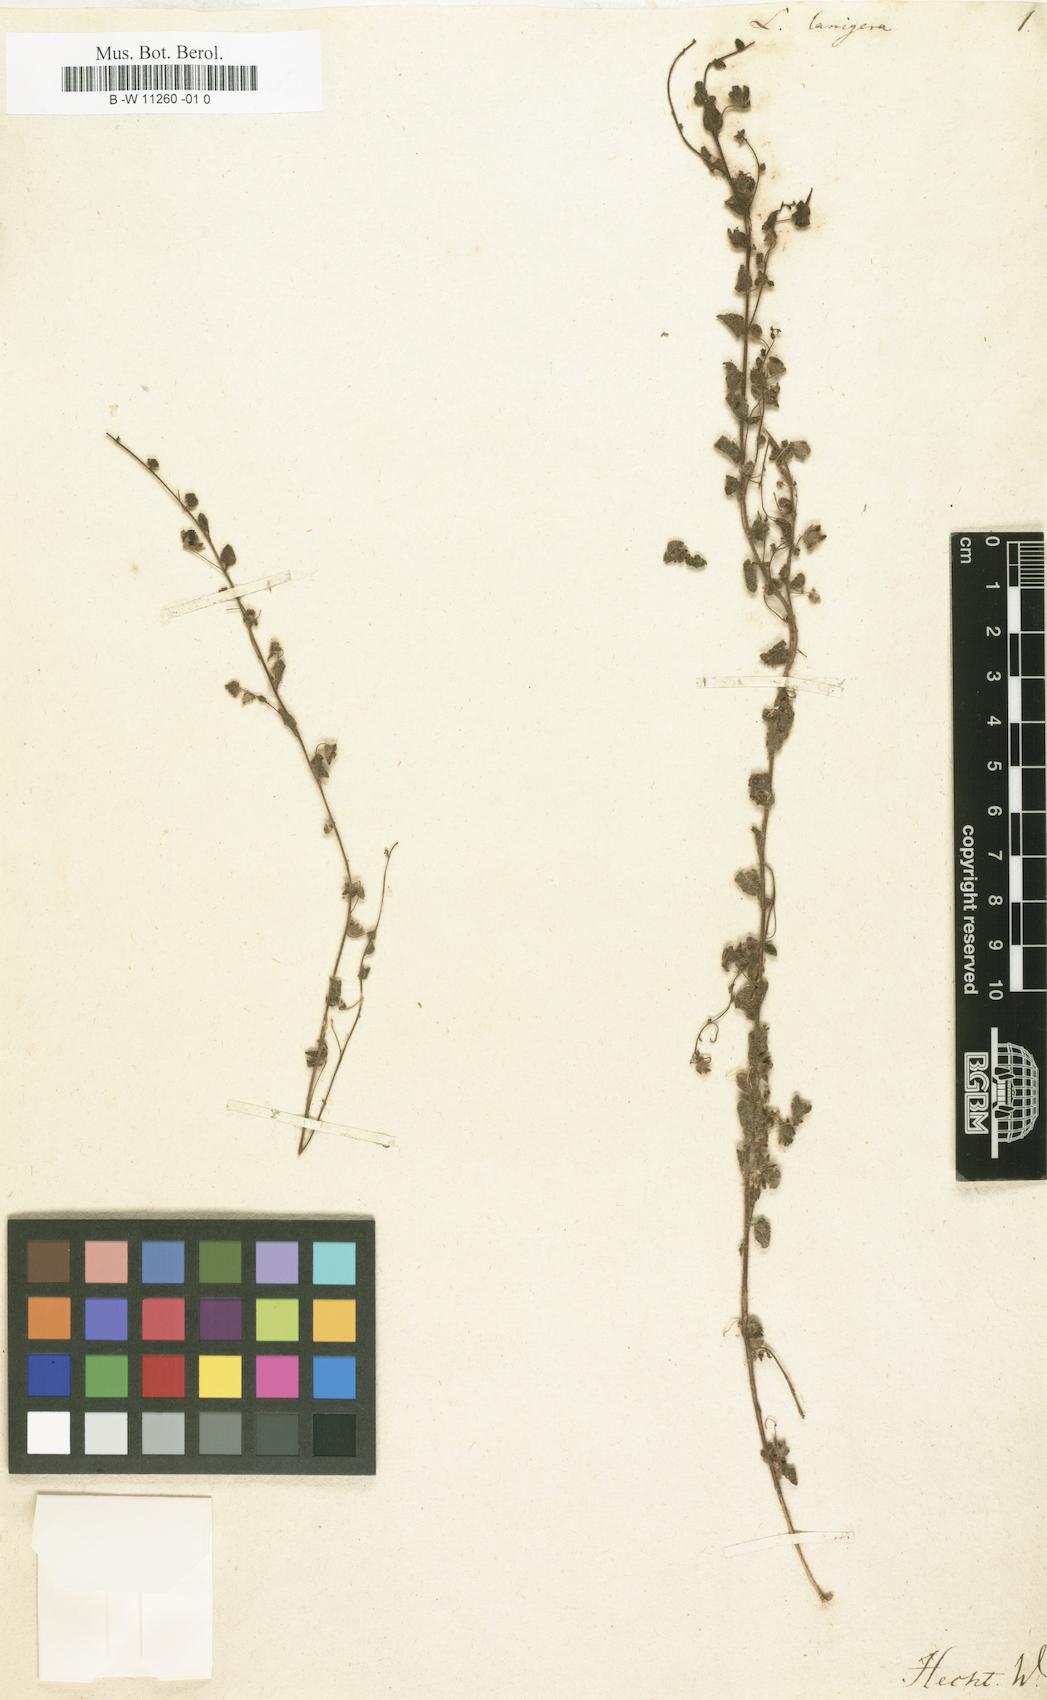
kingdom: Plantae
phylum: Tracheophyta
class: Magnoliopsida
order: Lamiales
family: Plantaginaceae
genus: Kickxia
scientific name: Kickxia lanigera
